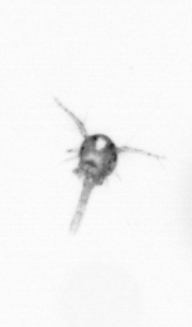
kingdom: Animalia
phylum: Arthropoda
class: Copepoda
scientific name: Copepoda
